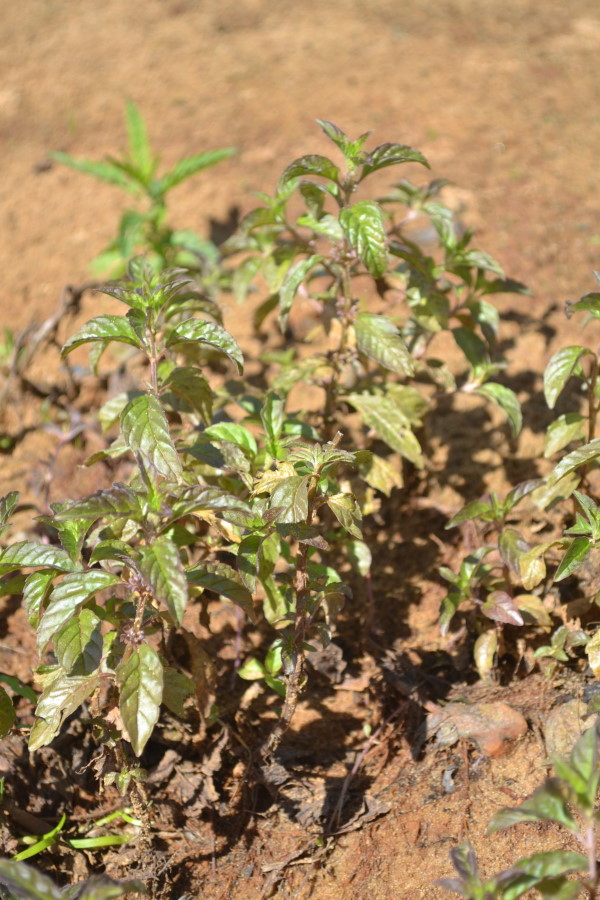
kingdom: Plantae
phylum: Tracheophyta
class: Magnoliopsida
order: Lamiales
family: Lamiaceae
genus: Mentha
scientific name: Mentha arvensis
